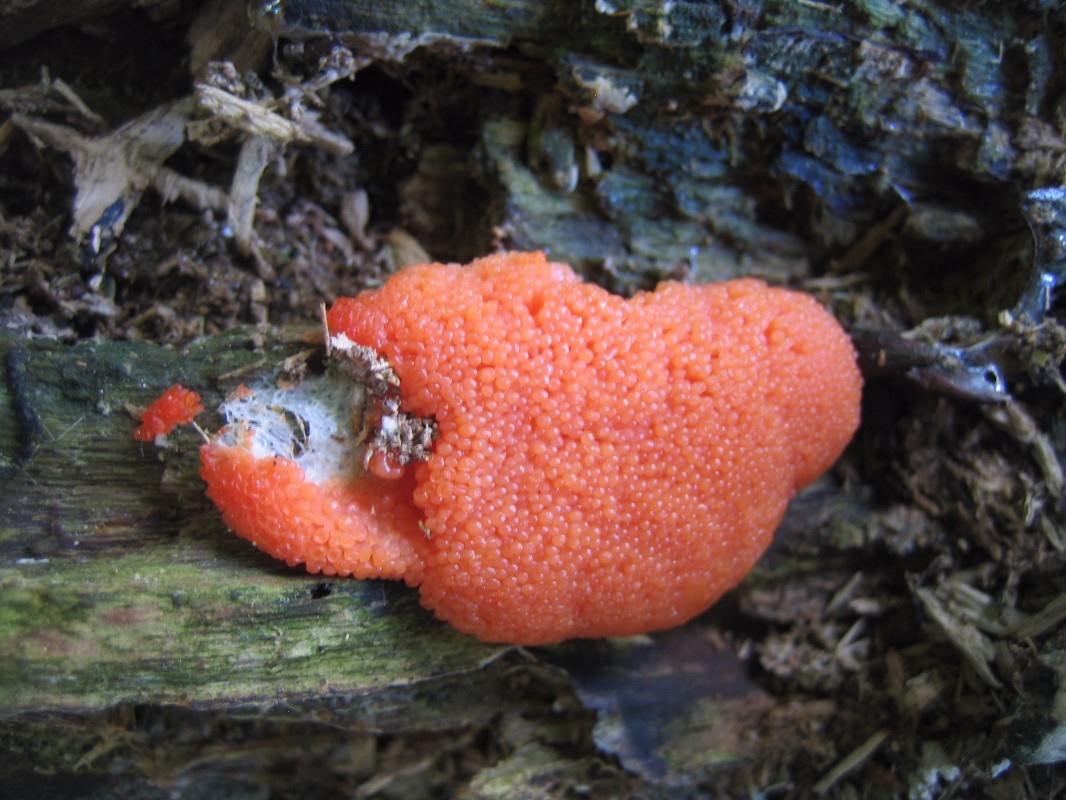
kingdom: Protozoa
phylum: Mycetozoa
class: Myxomycetes
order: Cribrariales
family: Tubiferaceae
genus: Tubifera
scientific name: Tubifera ferruginosa
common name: kanel-støvrør
